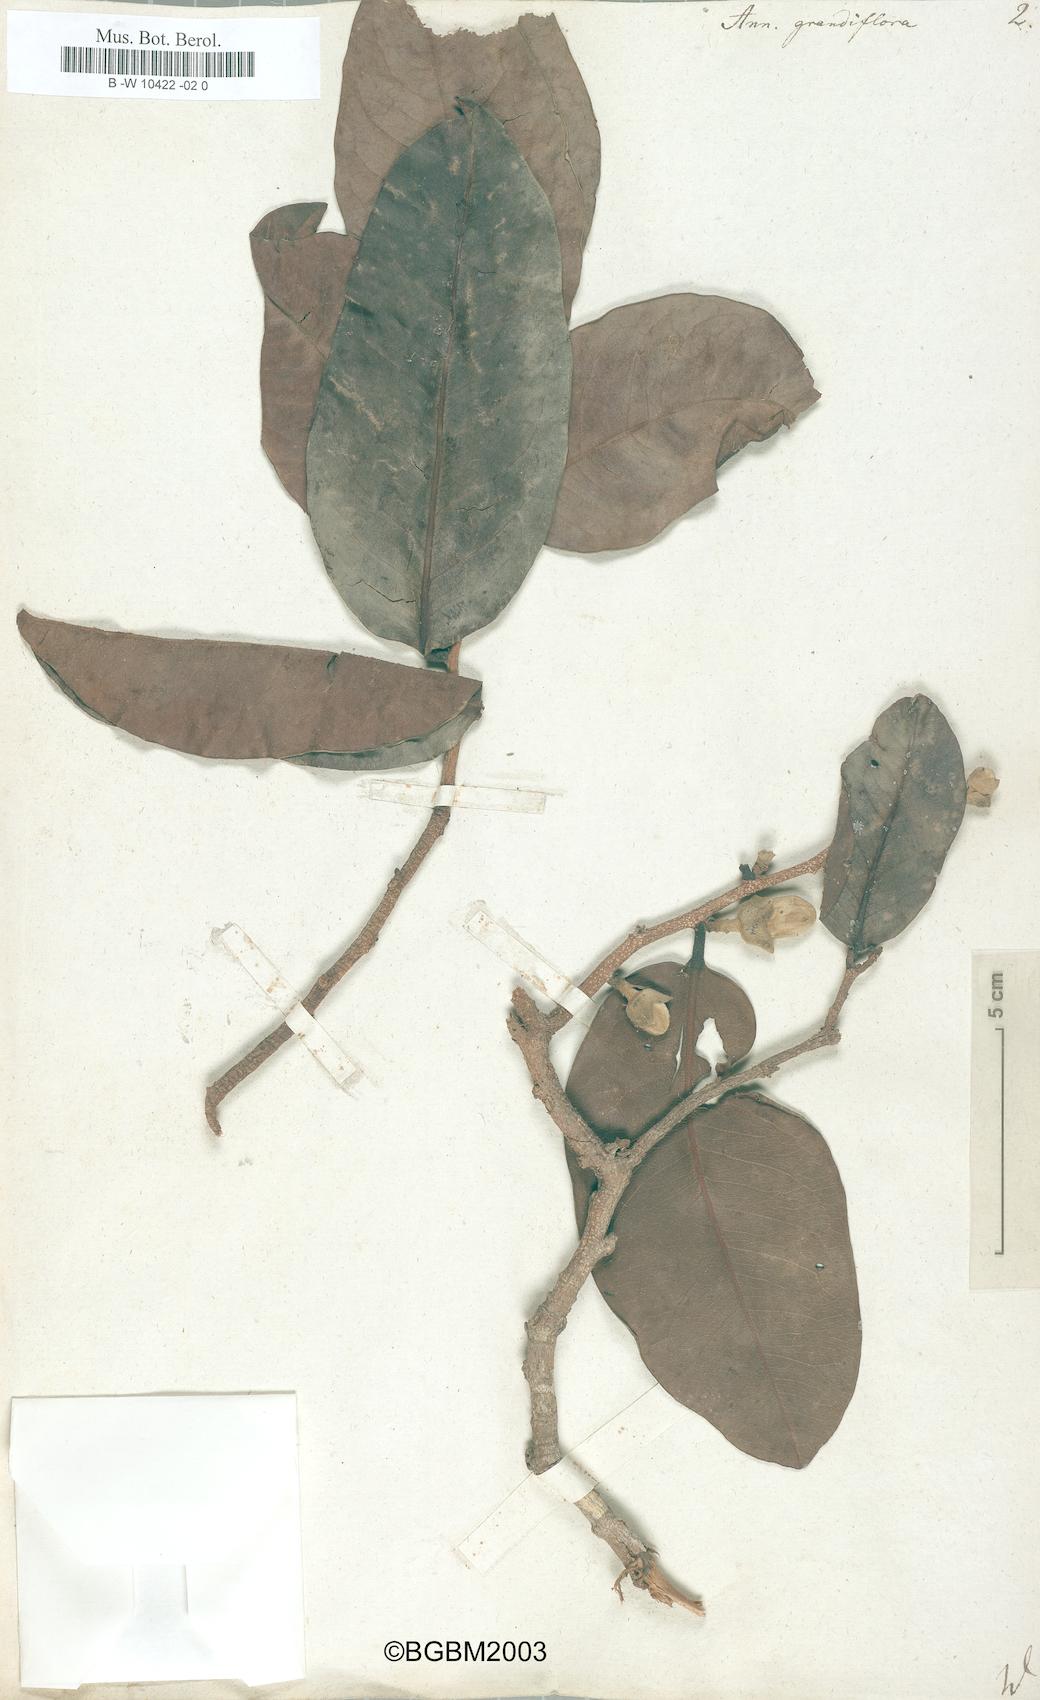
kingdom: Plantae
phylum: Tracheophyta
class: Magnoliopsida
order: Magnoliales
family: Annonaceae
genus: Asimina
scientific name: Asimina obovata
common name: Flag pawpaw
